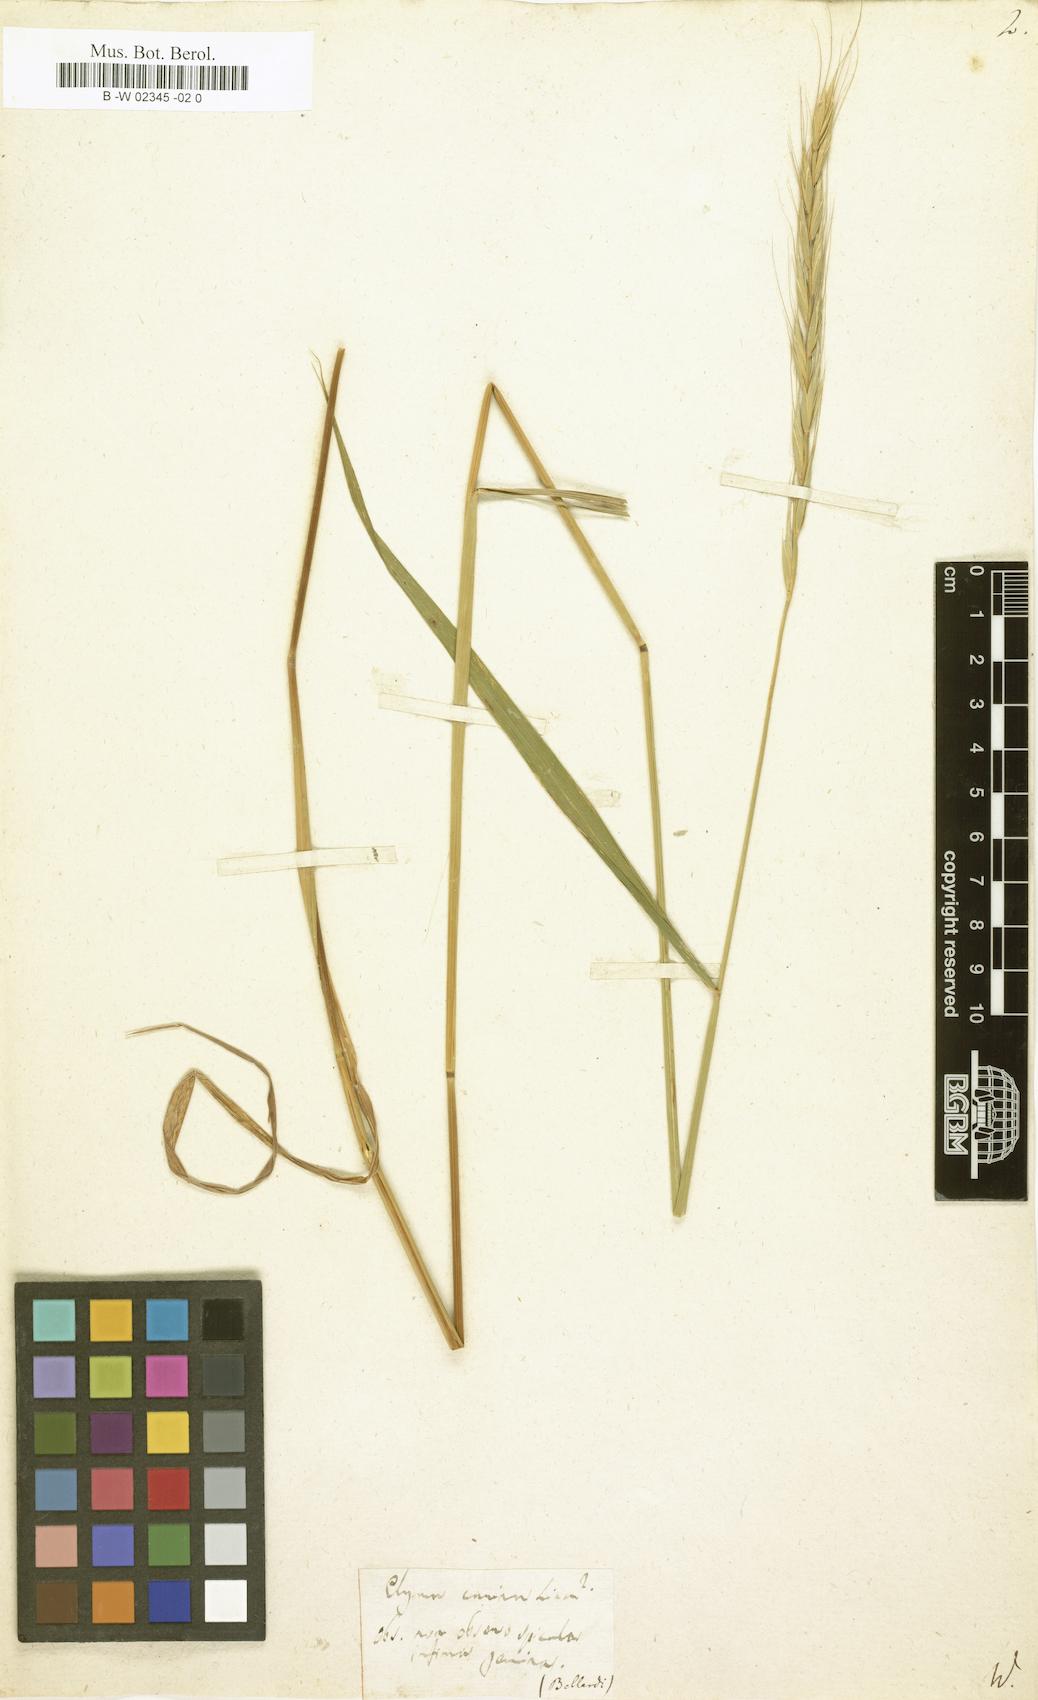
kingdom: Plantae
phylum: Tracheophyta
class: Liliopsida
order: Poales
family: Poaceae
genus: Triticum
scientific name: Triticum caninum
